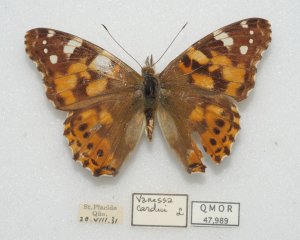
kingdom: Animalia
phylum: Arthropoda
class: Insecta
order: Lepidoptera
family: Nymphalidae
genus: Vanessa
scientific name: Vanessa cardui
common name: Painted Lady
